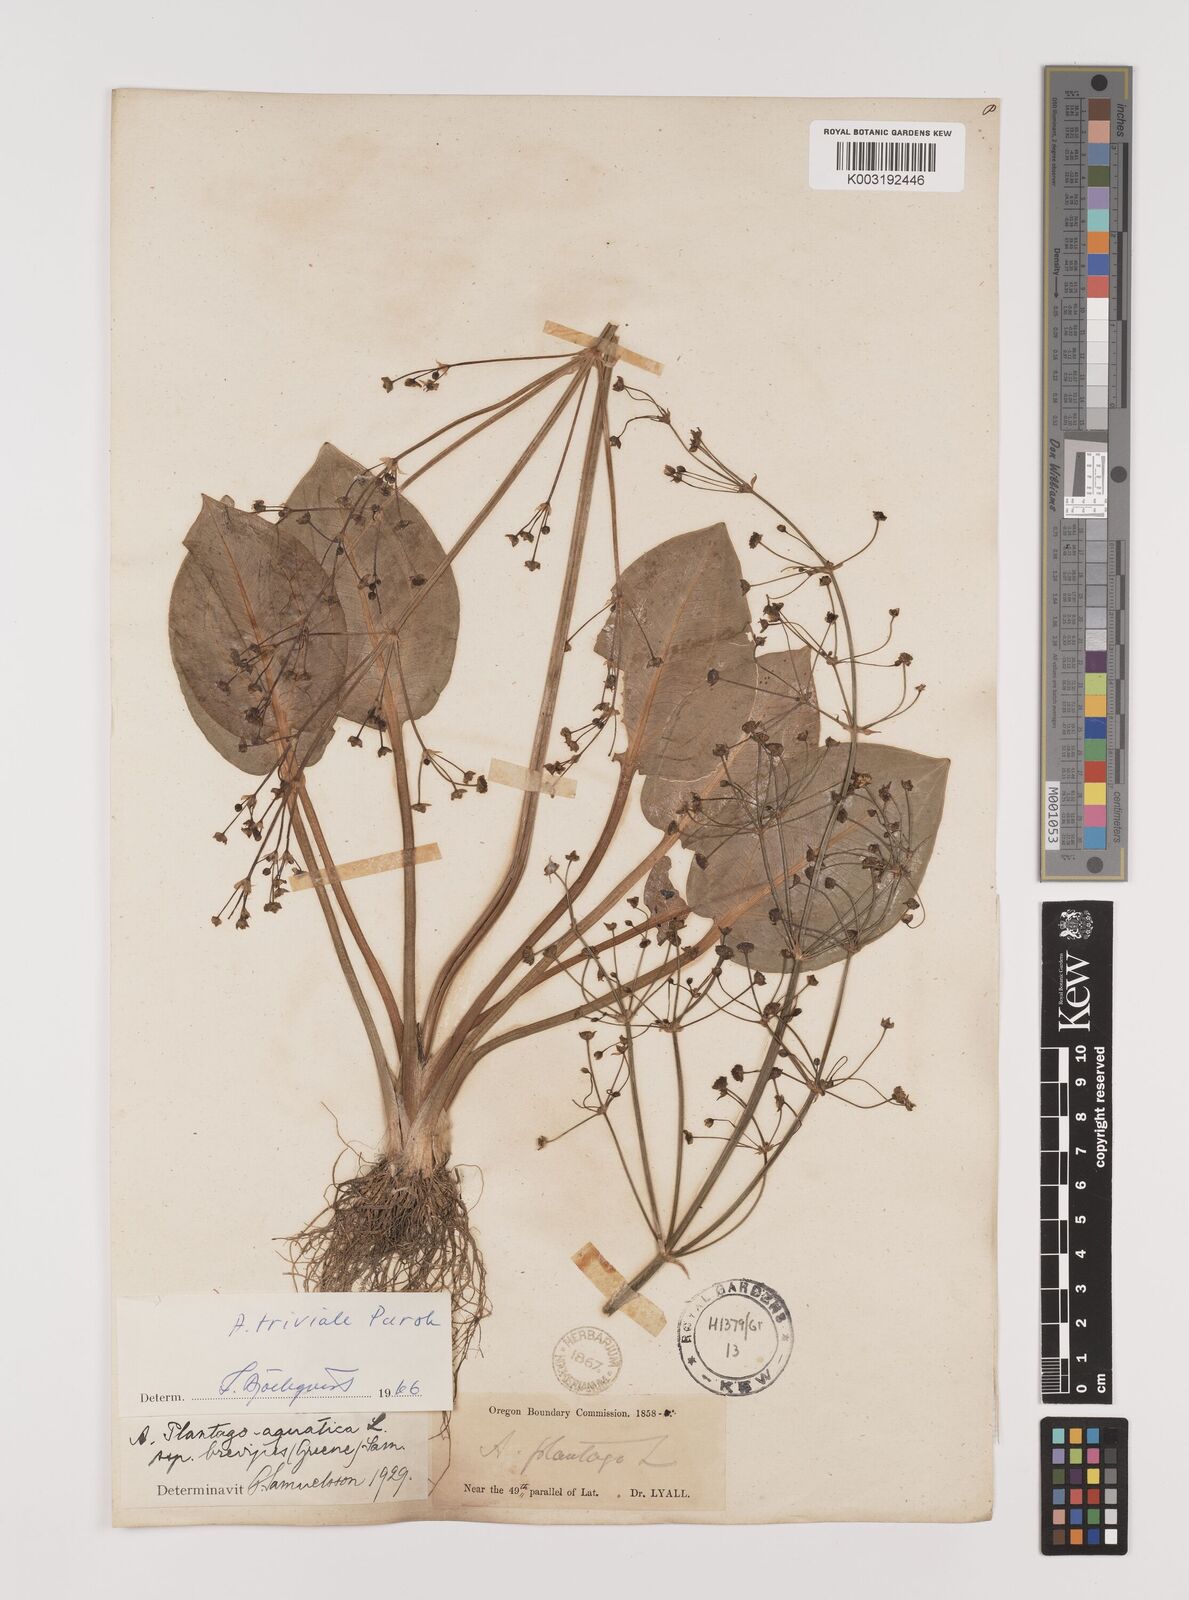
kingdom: Plantae
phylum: Tracheophyta
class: Liliopsida
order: Alismatales
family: Alismataceae
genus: Alisma
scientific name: Alisma triviale
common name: Northern water-plantain
